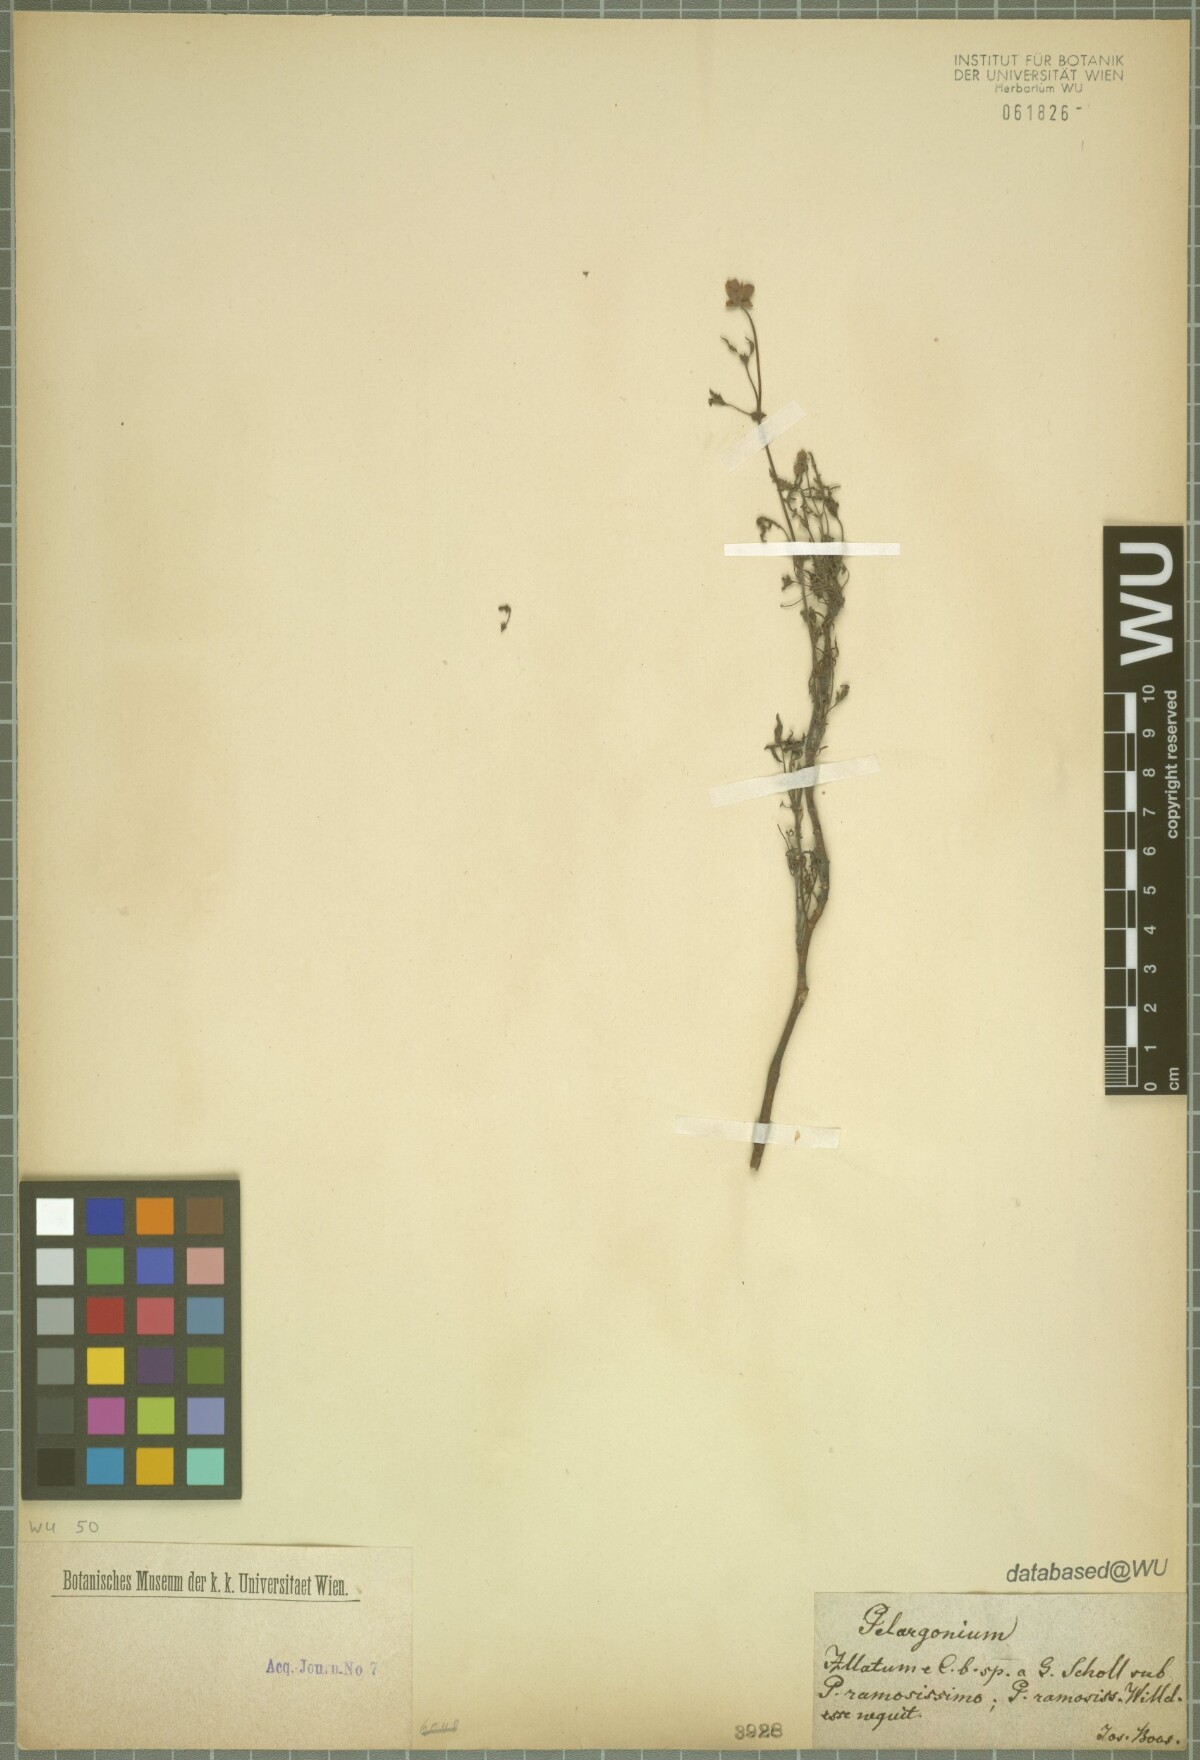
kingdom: Plantae
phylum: Tracheophyta
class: Magnoliopsida
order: Geraniales
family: Geraniaceae
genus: Pelargonium
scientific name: Pelargonium
